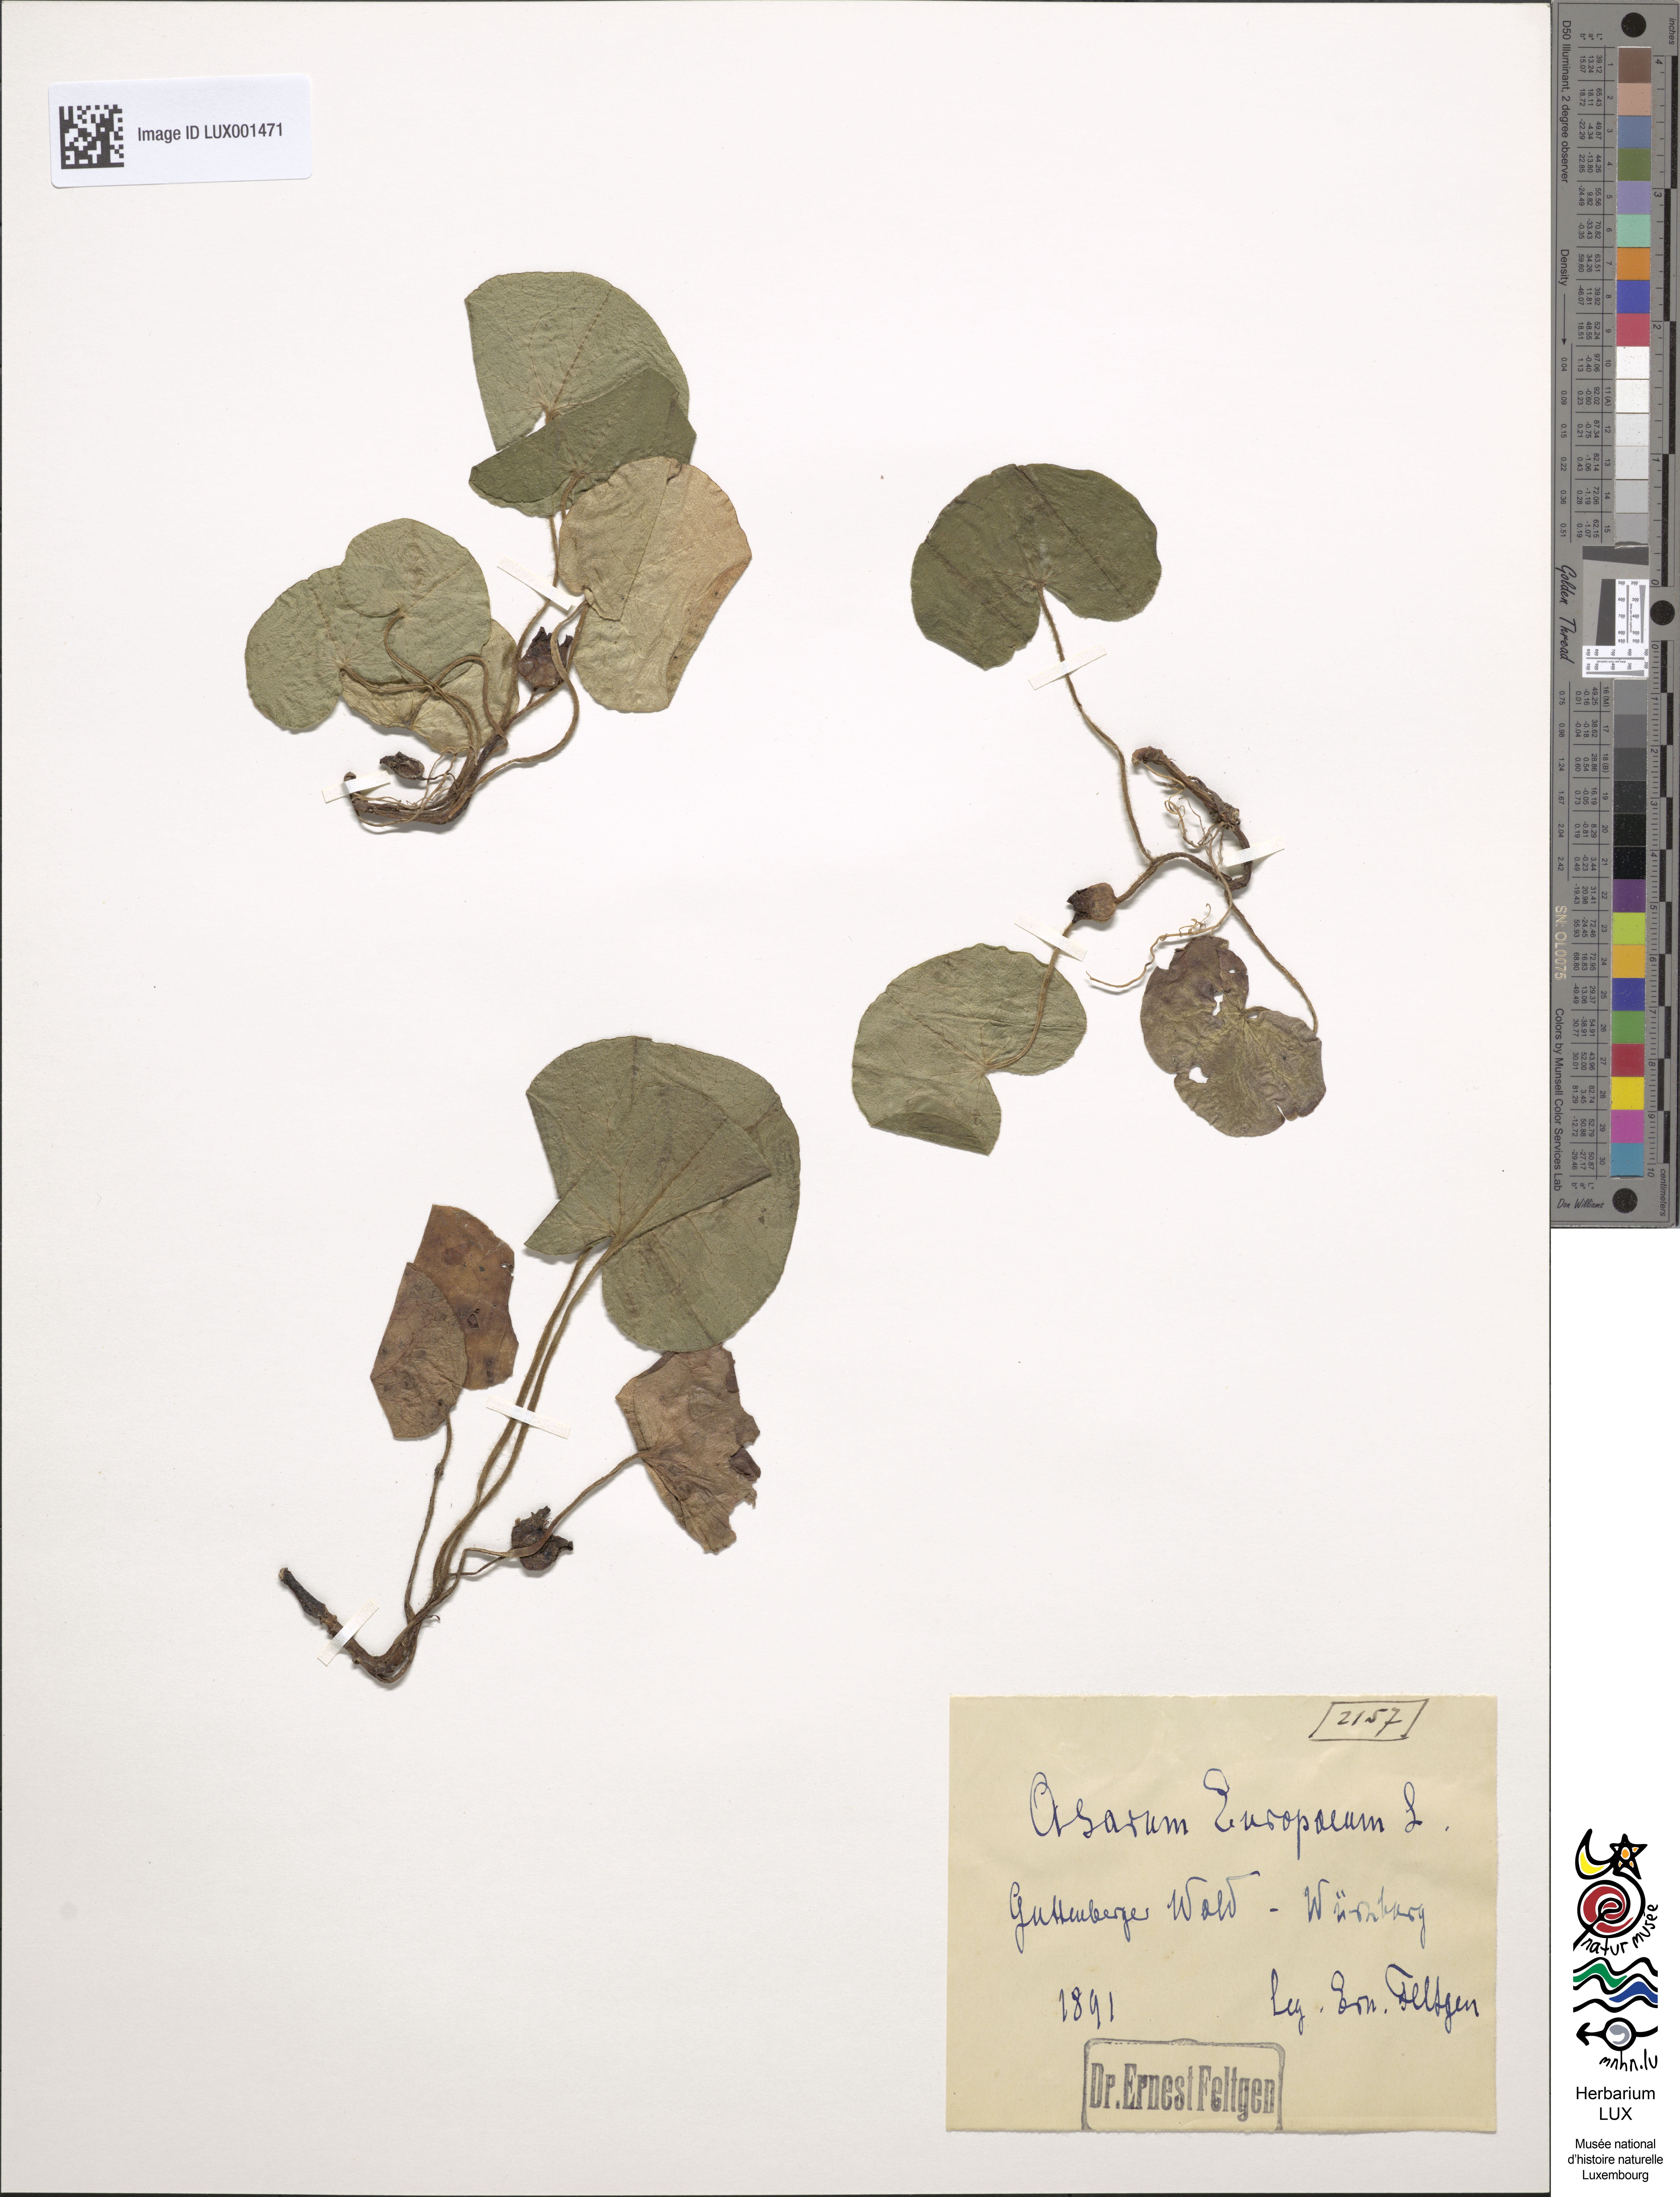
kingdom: Plantae
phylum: Tracheophyta
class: Magnoliopsida
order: Piperales
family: Aristolochiaceae
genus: Asarum
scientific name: Asarum europaeum
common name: Asarabacca
